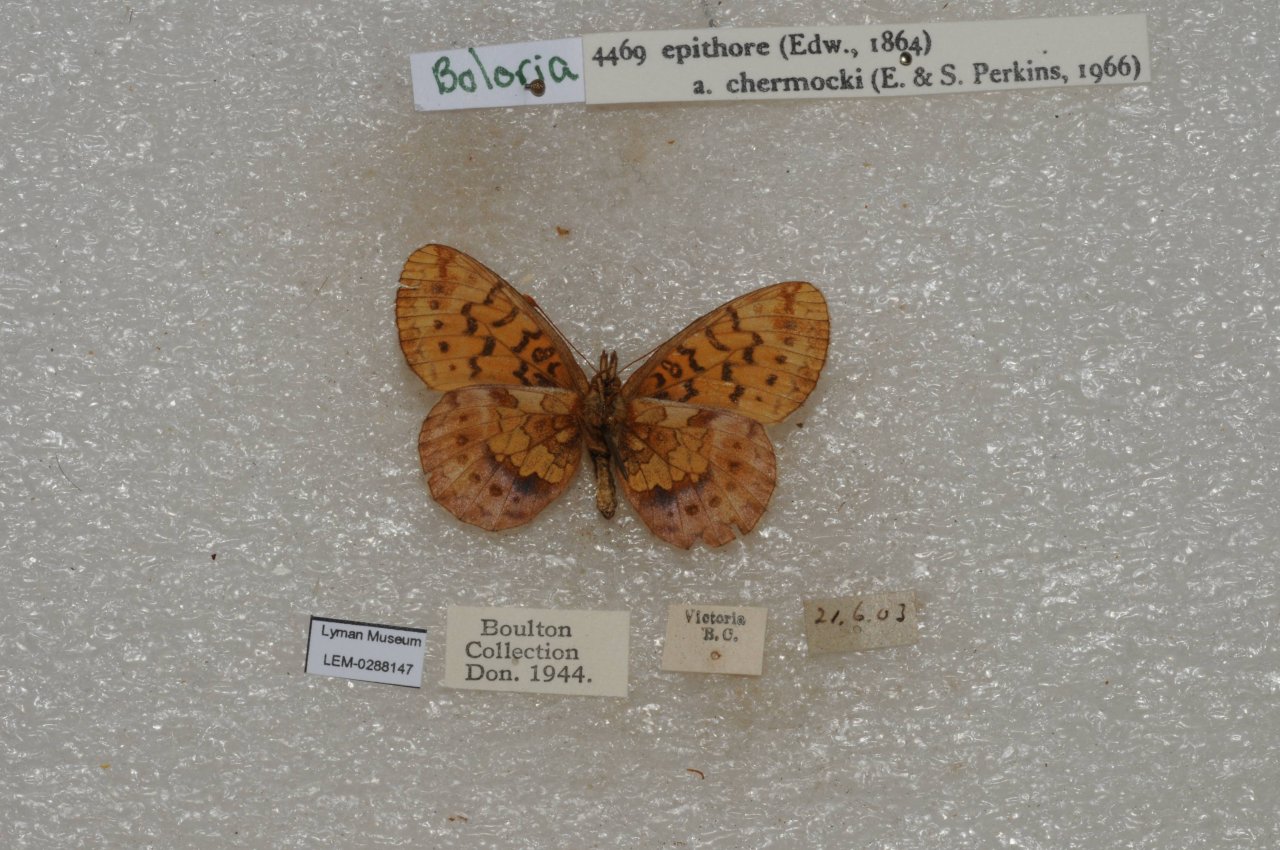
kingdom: Animalia
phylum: Arthropoda
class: Insecta
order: Lepidoptera
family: Nymphalidae
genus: Boloria
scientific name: Boloria epithore
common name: Pacific Fritillary
